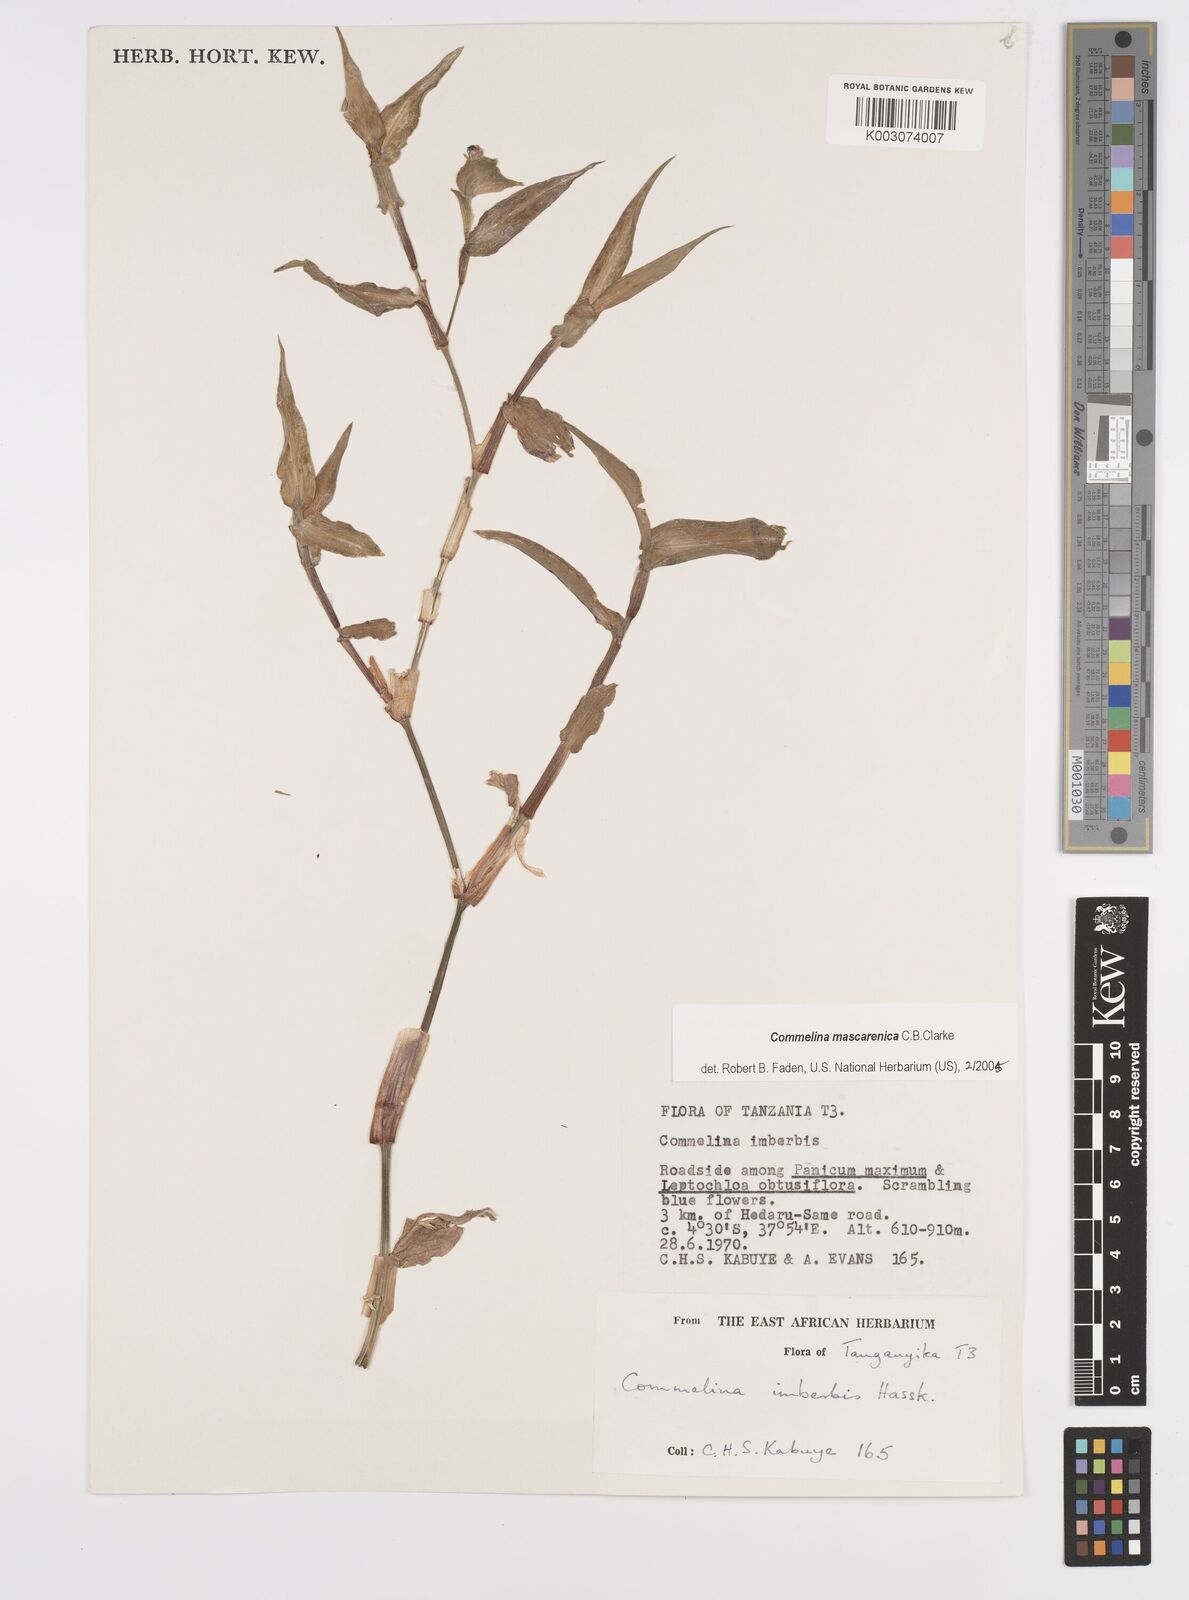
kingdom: Plantae
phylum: Tracheophyta
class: Liliopsida
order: Commelinales
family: Commelinaceae
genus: Commelina
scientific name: Commelina mascarenica
